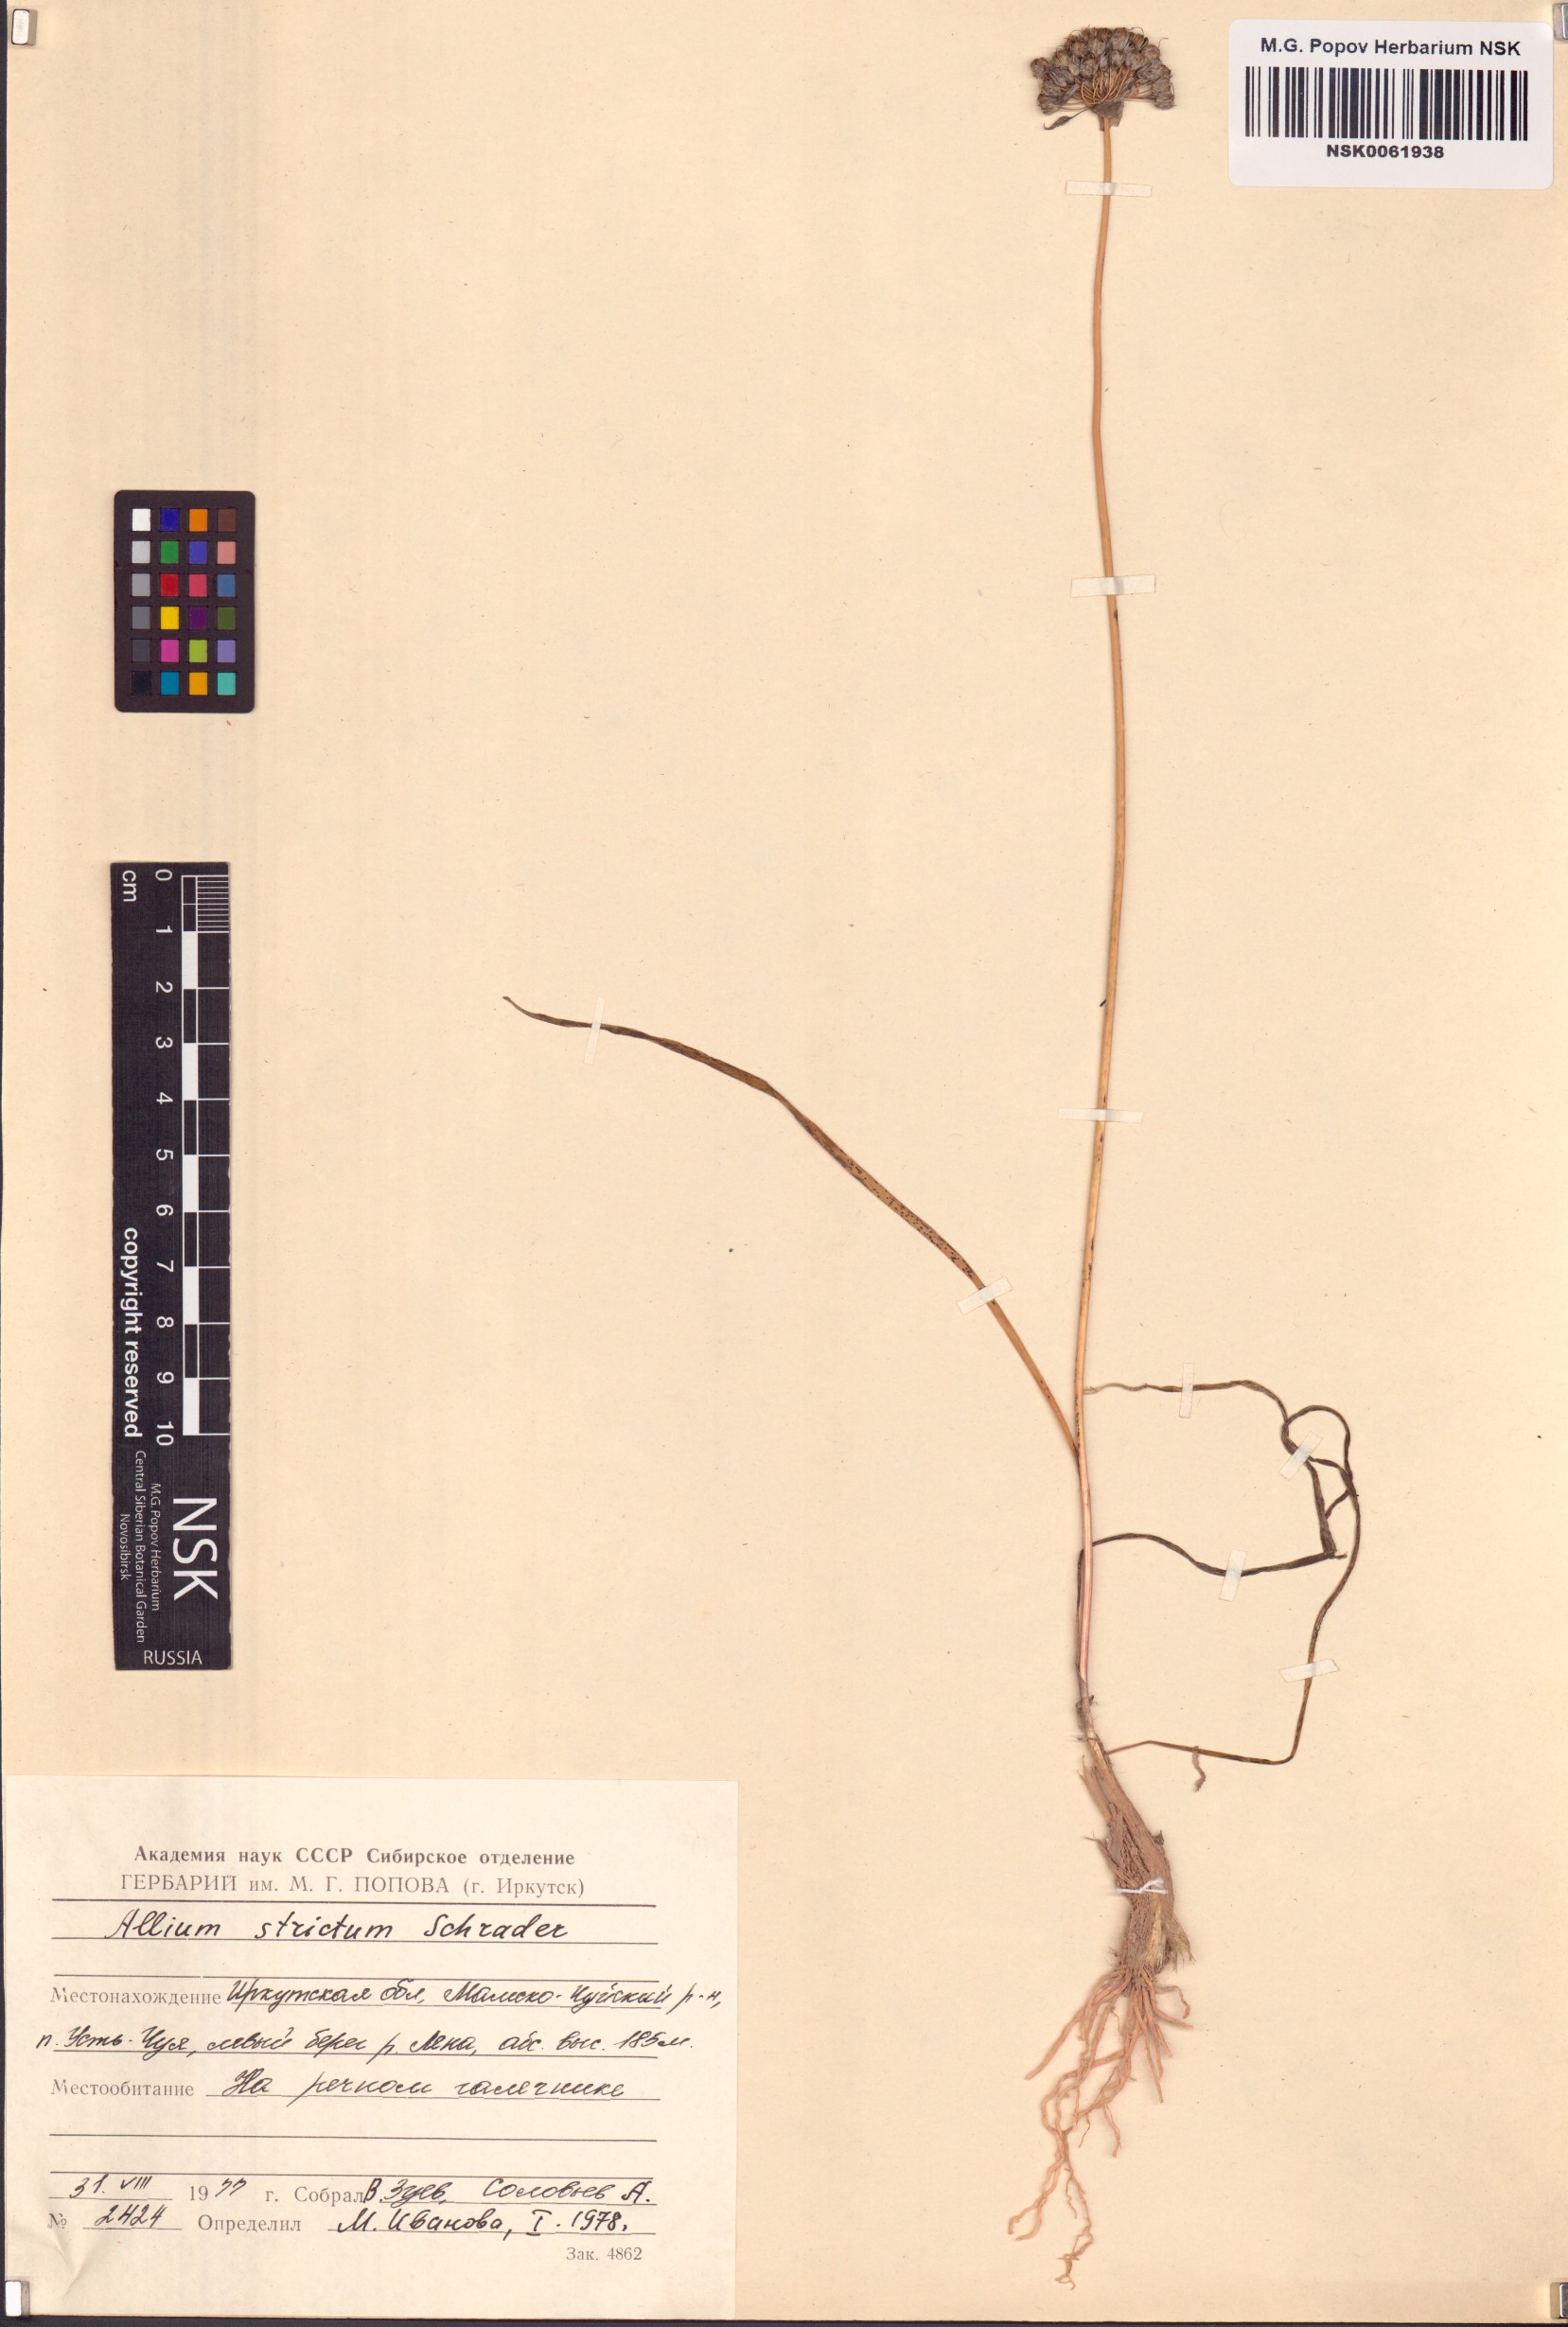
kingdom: Plantae
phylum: Tracheophyta
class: Liliopsida
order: Asparagales
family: Amaryllidaceae
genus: Allium
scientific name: Allium strictum
